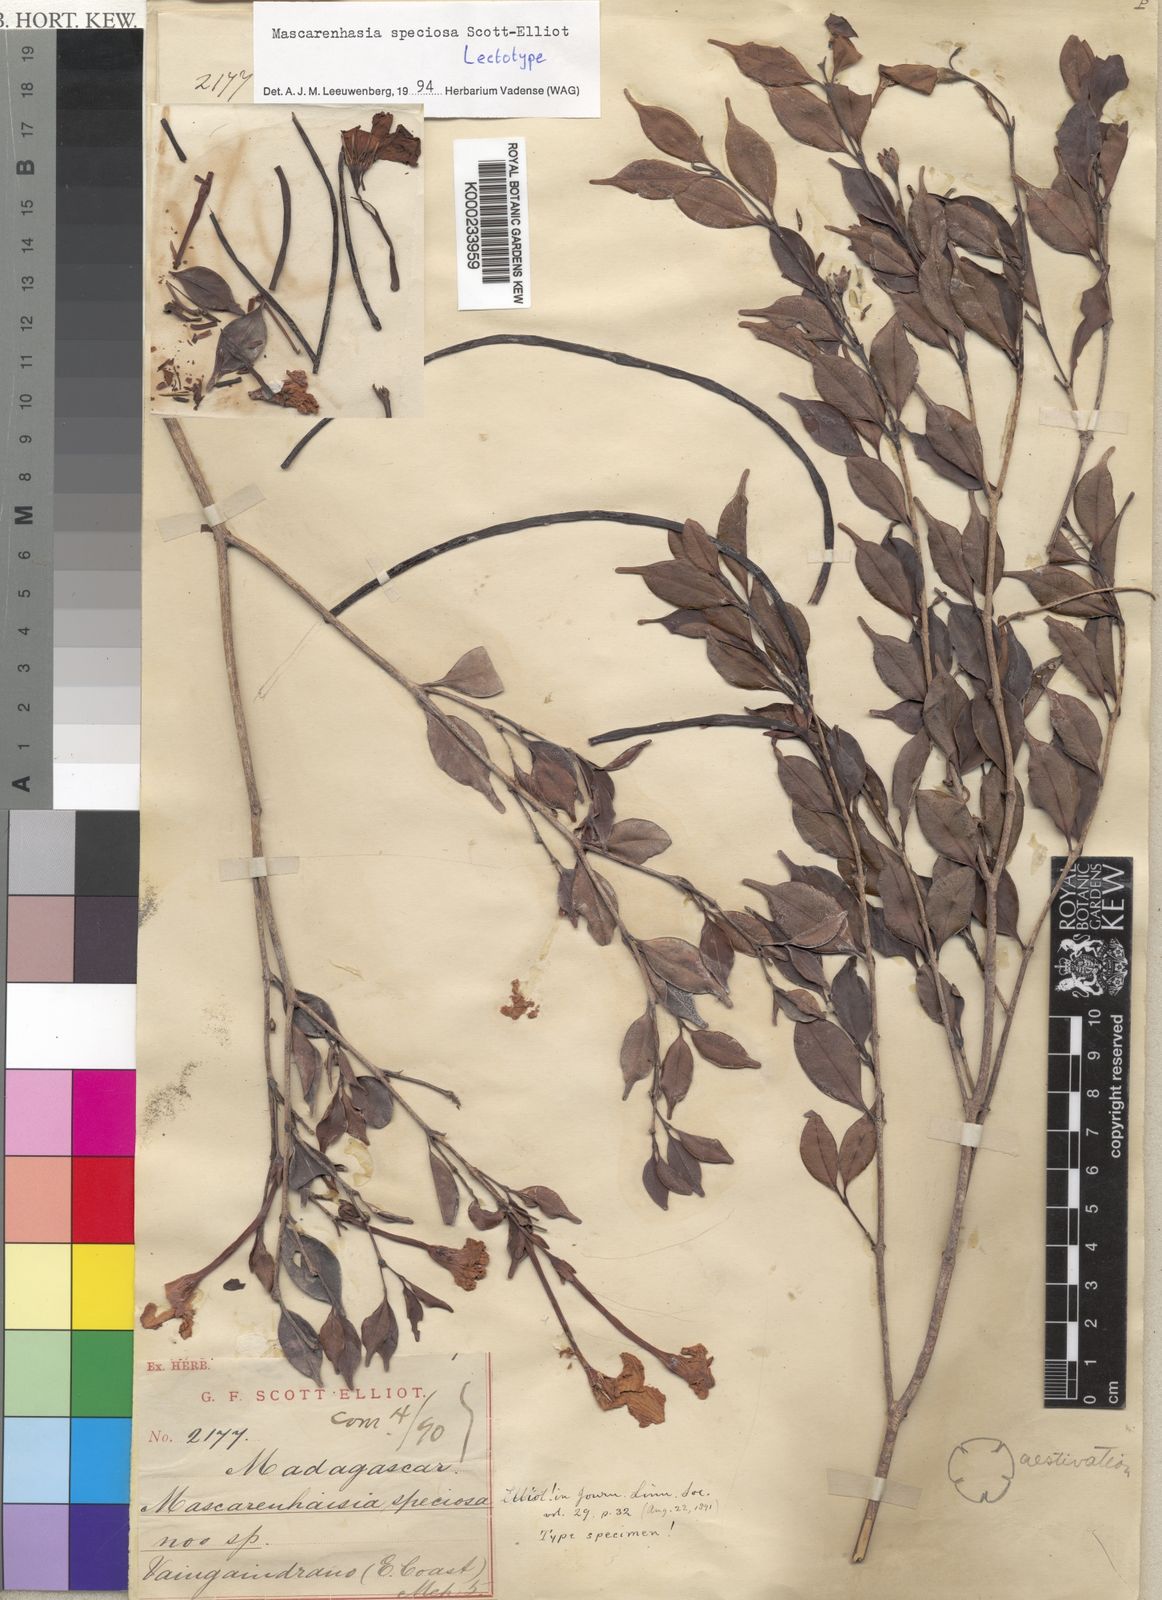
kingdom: Plantae
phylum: Tracheophyta
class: Magnoliopsida
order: Gentianales
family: Apocynaceae
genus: Mascarenhasia
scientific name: Mascarenhasia speciosa
